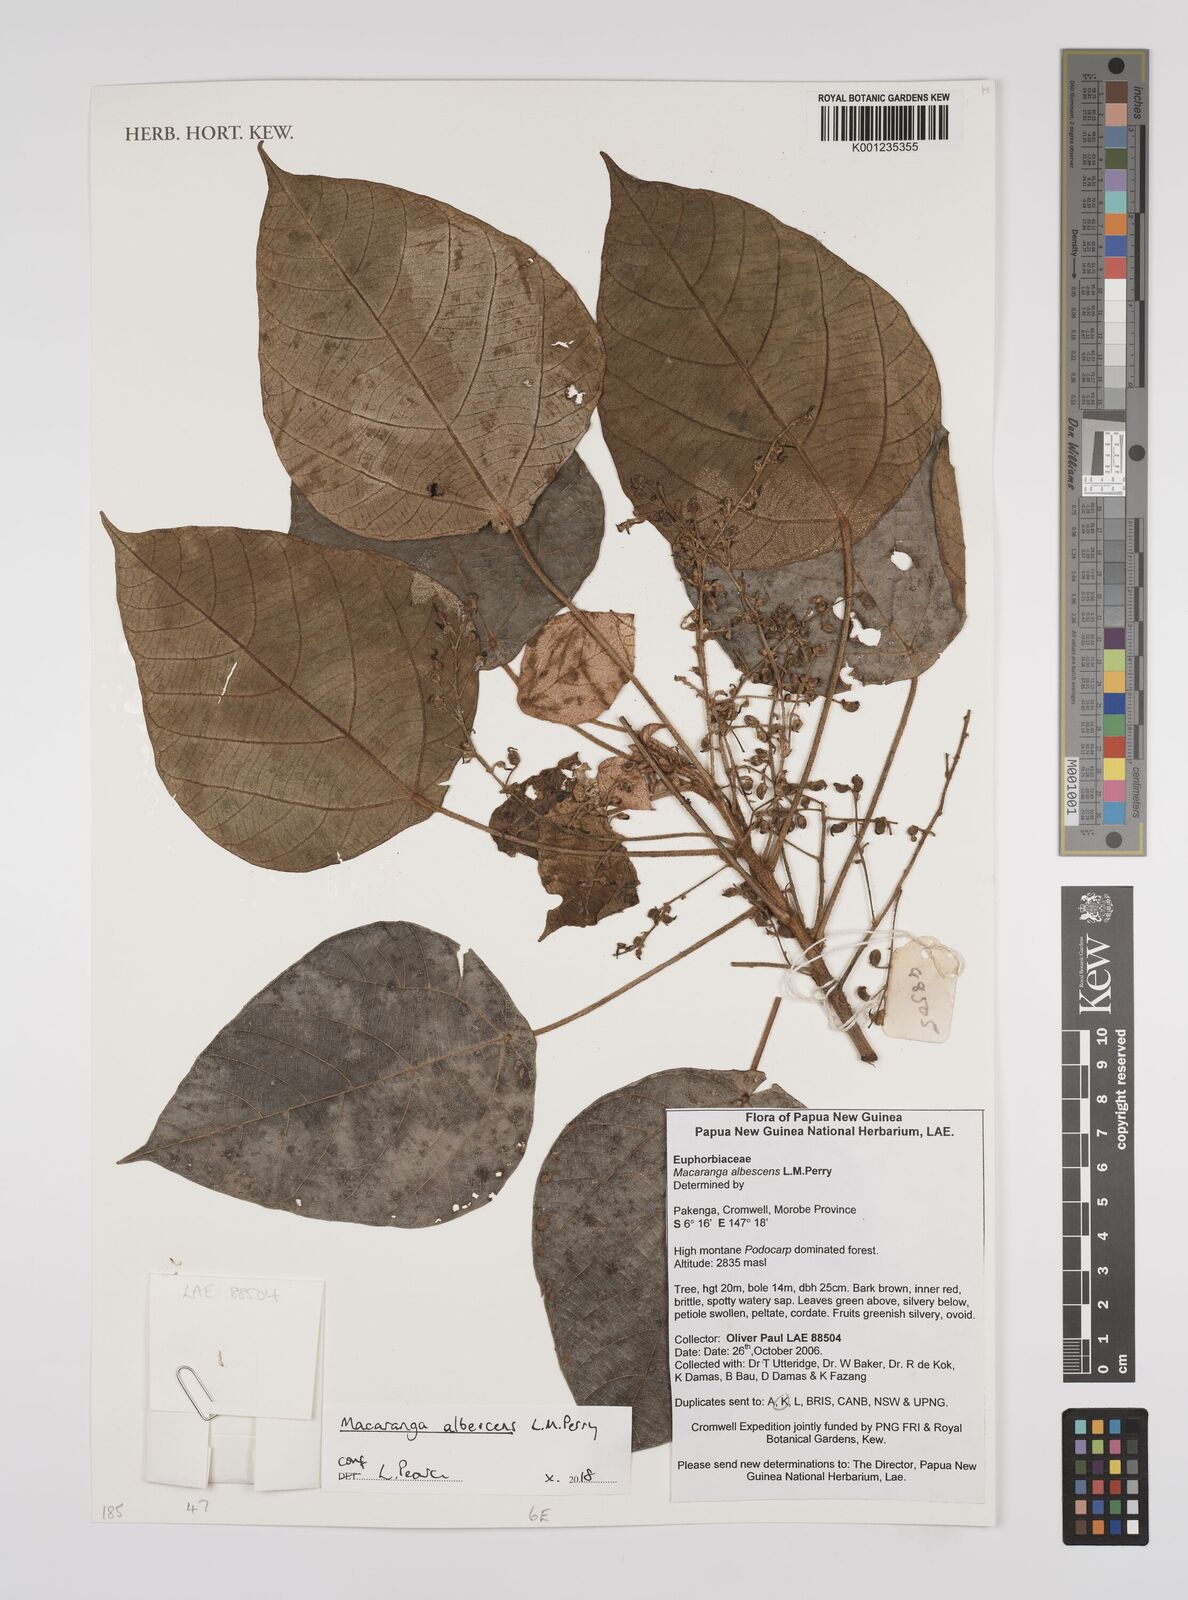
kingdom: Plantae
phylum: Tracheophyta
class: Magnoliopsida
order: Malpighiales
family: Euphorbiaceae
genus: Macaranga
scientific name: Macaranga albescens
